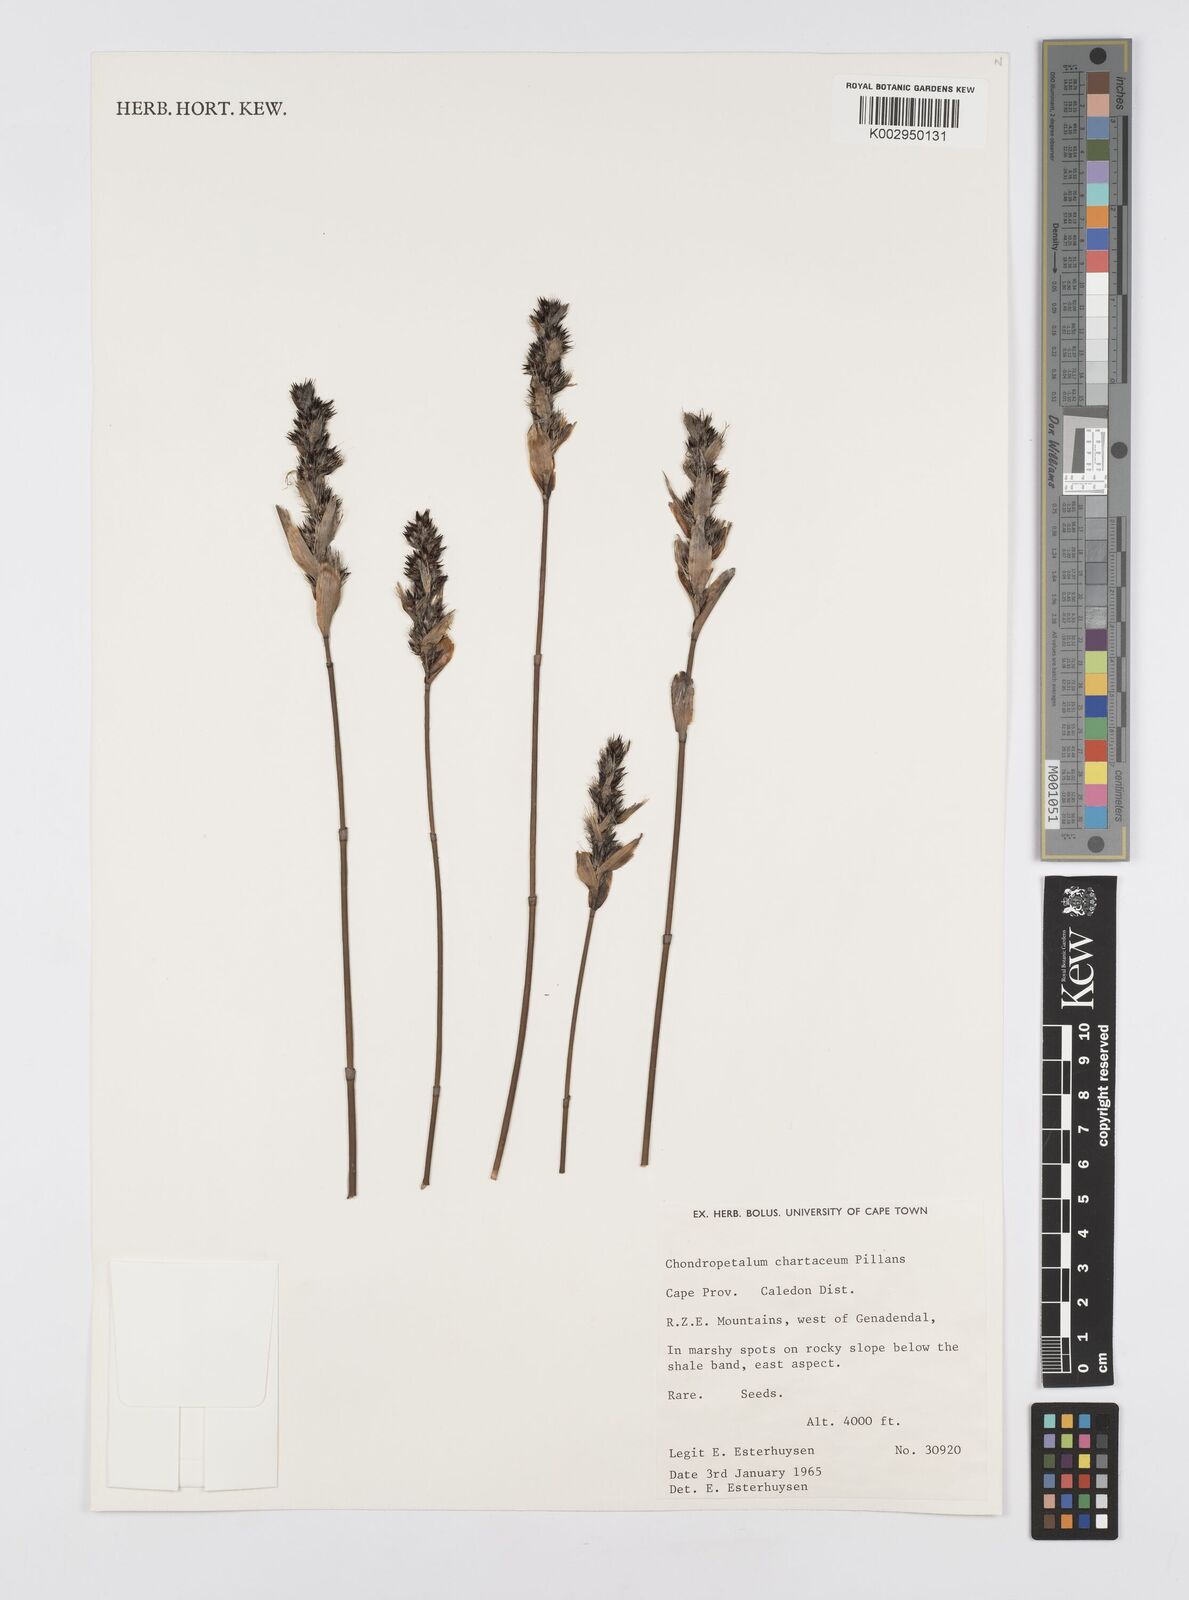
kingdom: Plantae
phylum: Tracheophyta
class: Liliopsida
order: Poales
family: Restionaceae
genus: Askidiosperma
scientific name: Askidiosperma chartaceum
